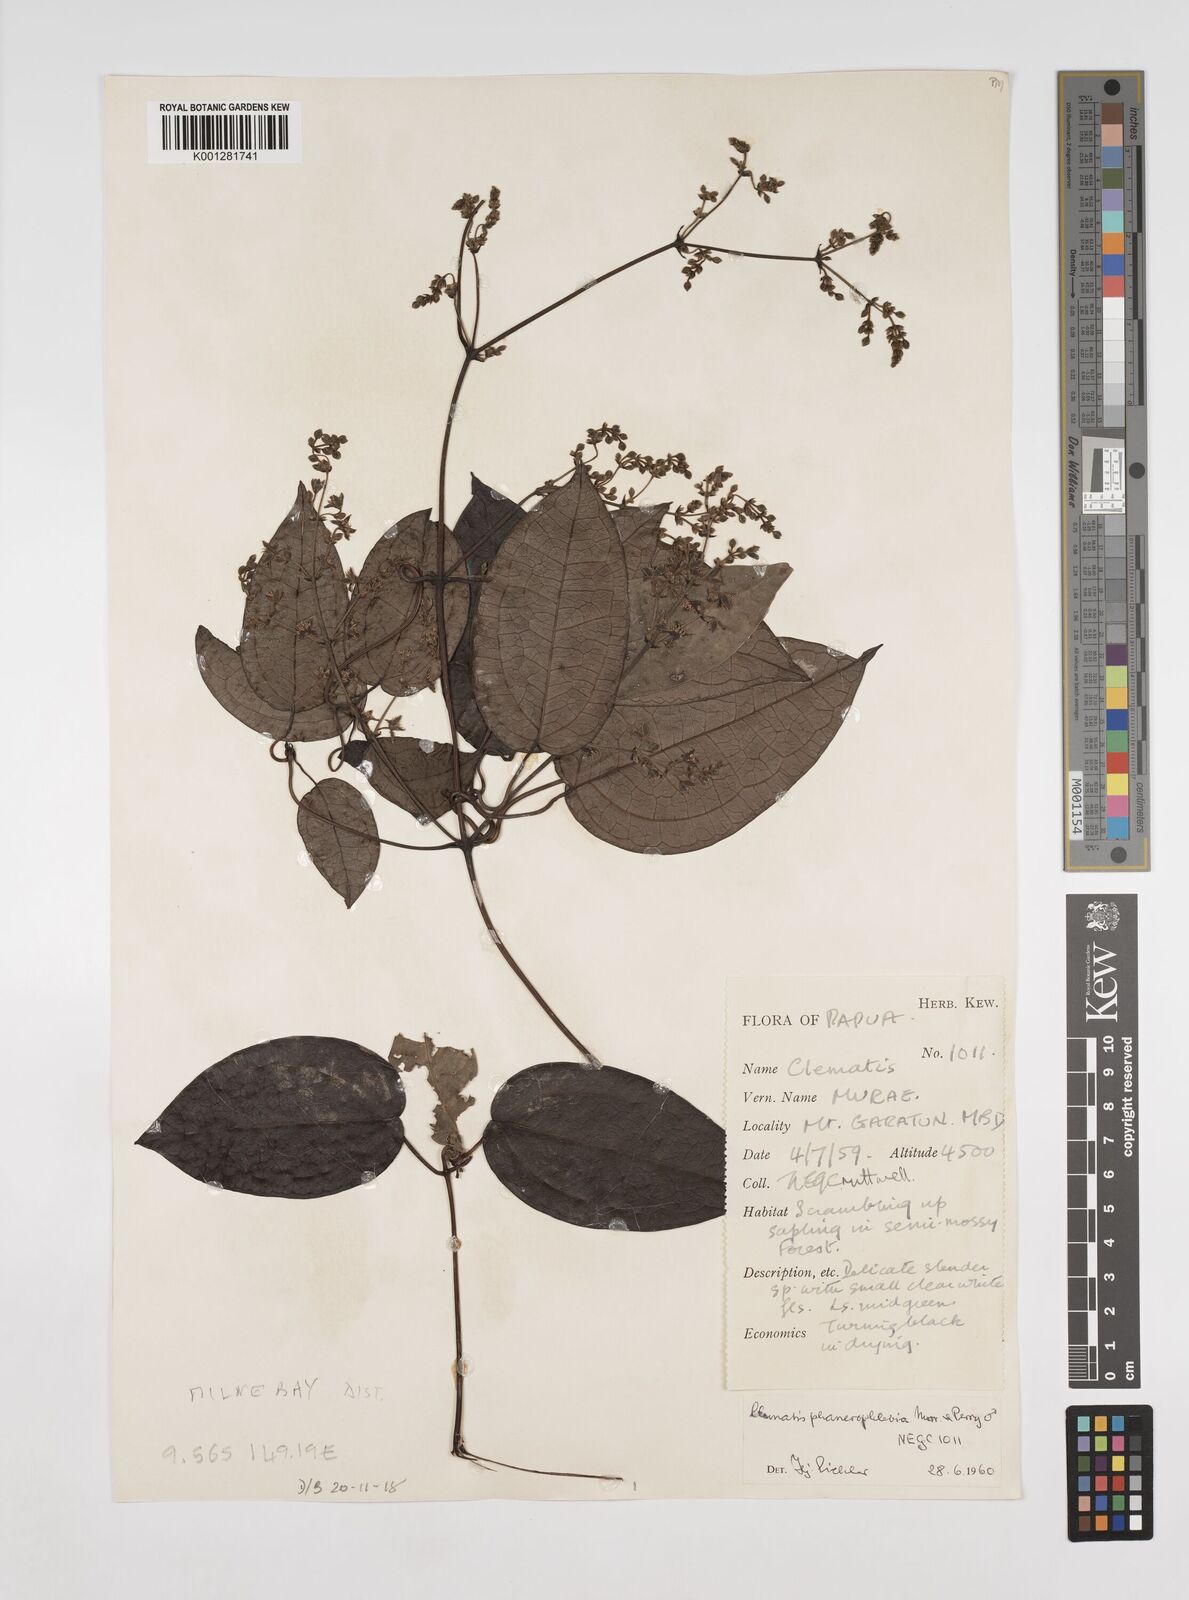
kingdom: Plantae
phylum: Tracheophyta
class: Magnoliopsida
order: Ranunculales
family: Ranunculaceae
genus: Clematis
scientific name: Clematis phanerophlebia
